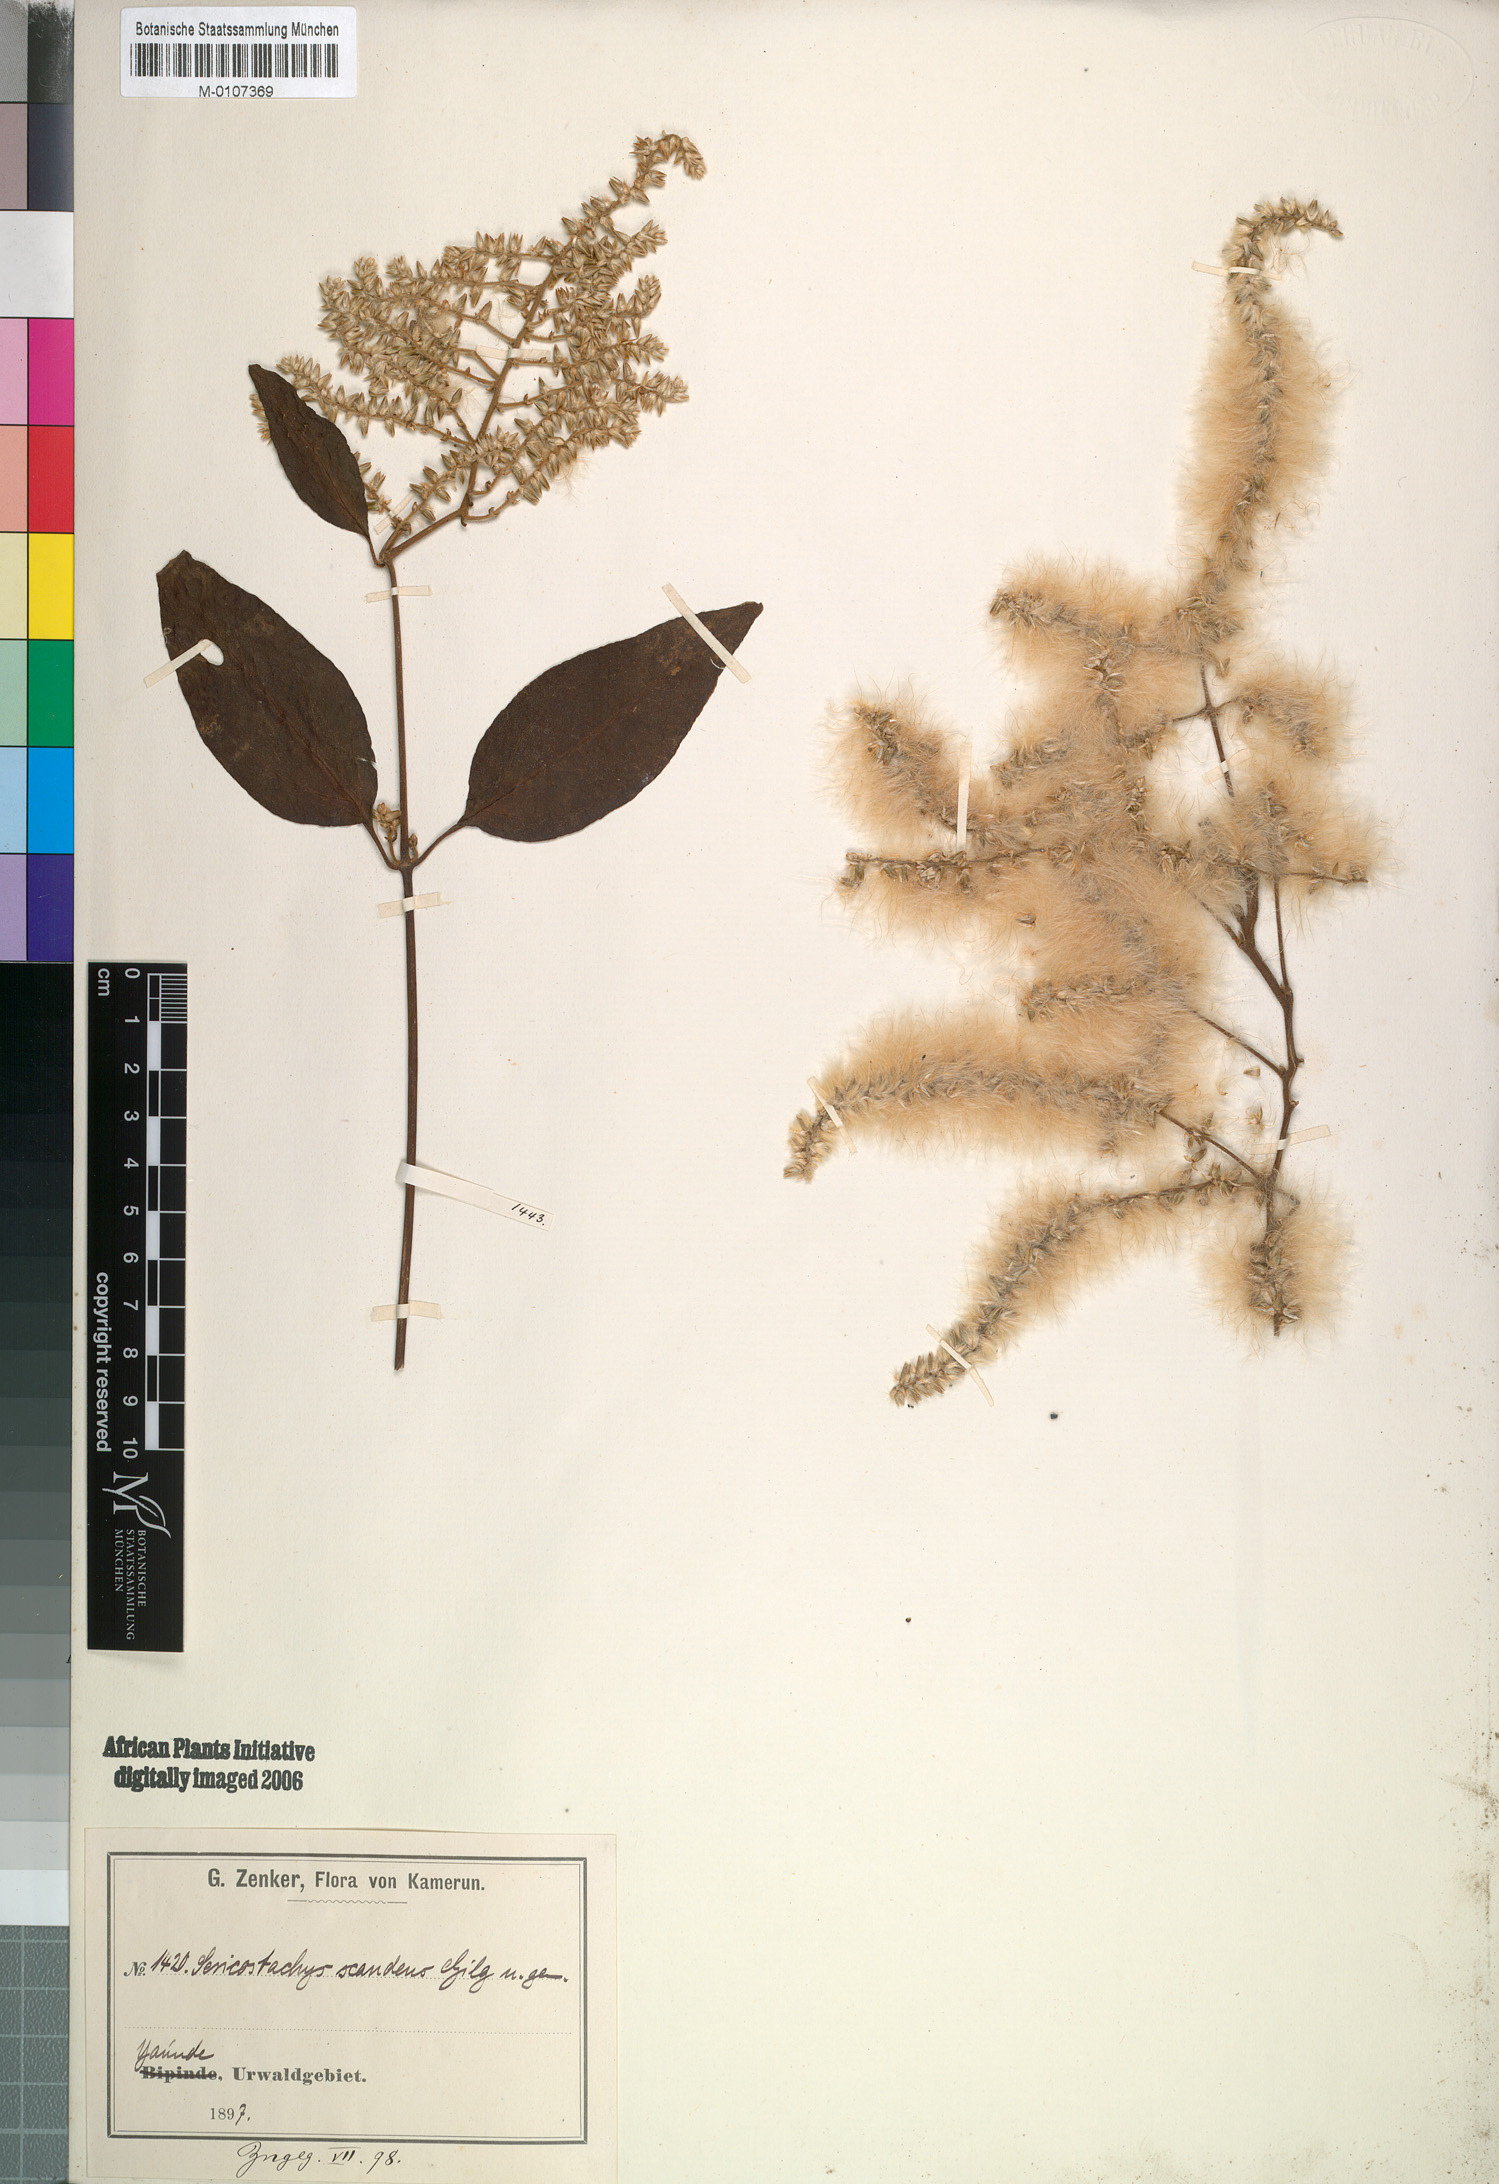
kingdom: Plantae
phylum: Tracheophyta
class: Magnoliopsida
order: Caryophyllales
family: Amaranthaceae
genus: Sericostachys
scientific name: Sericostachys scandens
